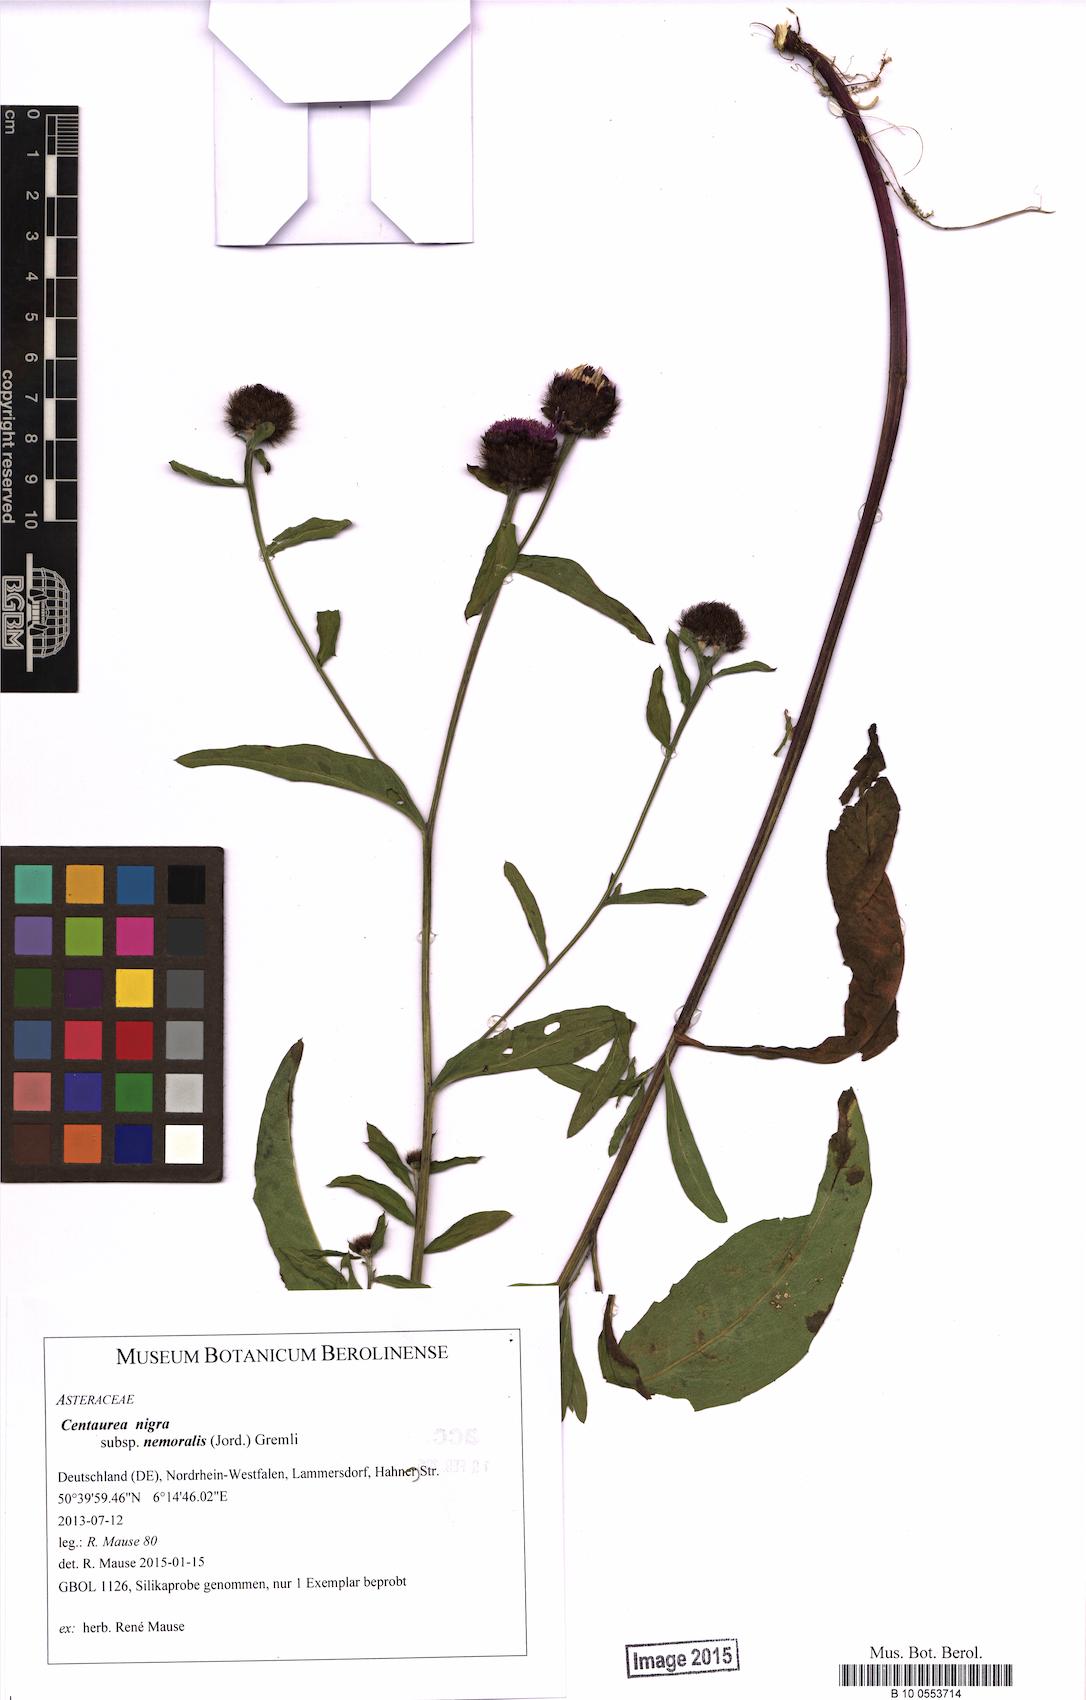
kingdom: Plantae
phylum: Tracheophyta
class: Magnoliopsida
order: Asterales
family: Asteraceae
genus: Centaurea
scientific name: Centaurea nigra
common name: Lesser knapweed
